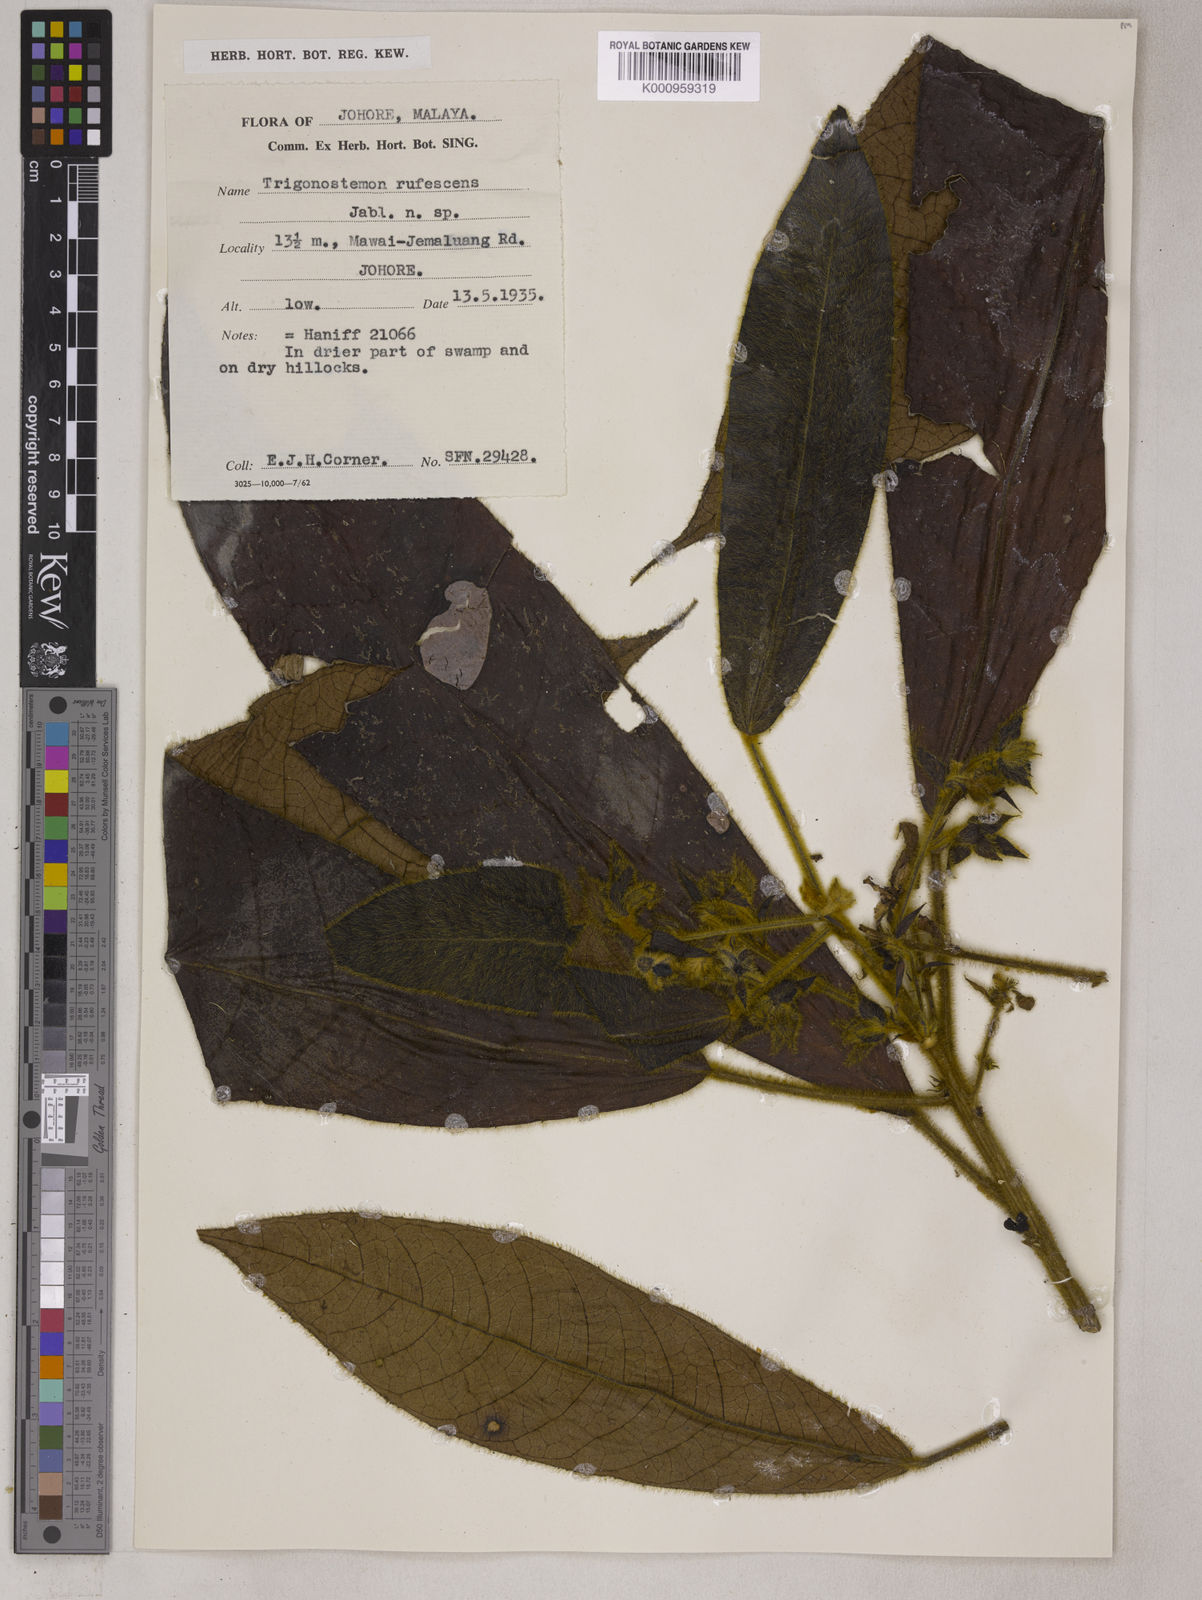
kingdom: Plantae
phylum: Tracheophyta
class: Magnoliopsida
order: Malpighiales
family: Euphorbiaceae
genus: Trigonostemon
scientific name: Trigonostemon rufescens
